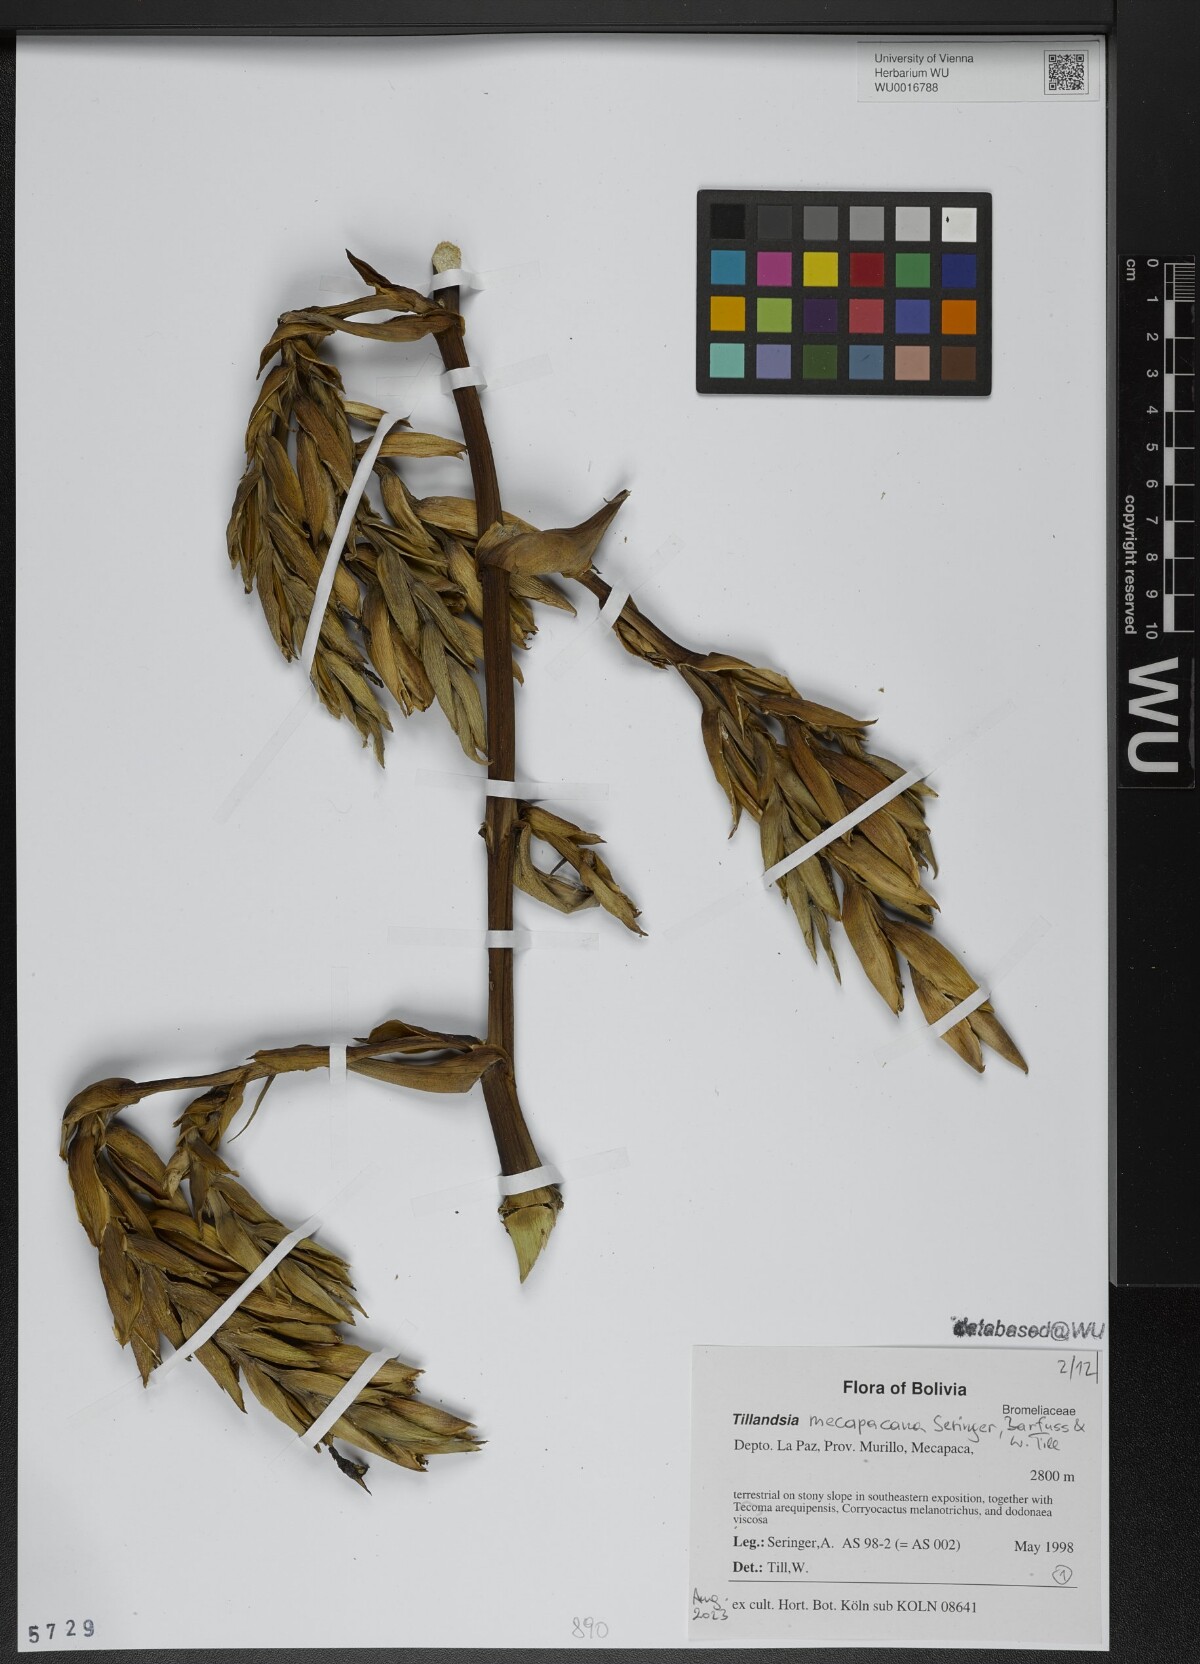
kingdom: Plantae
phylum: Tracheophyta
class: Liliopsida
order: Poales
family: Bromeliaceae
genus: Tillandsia
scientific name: Tillandsia
